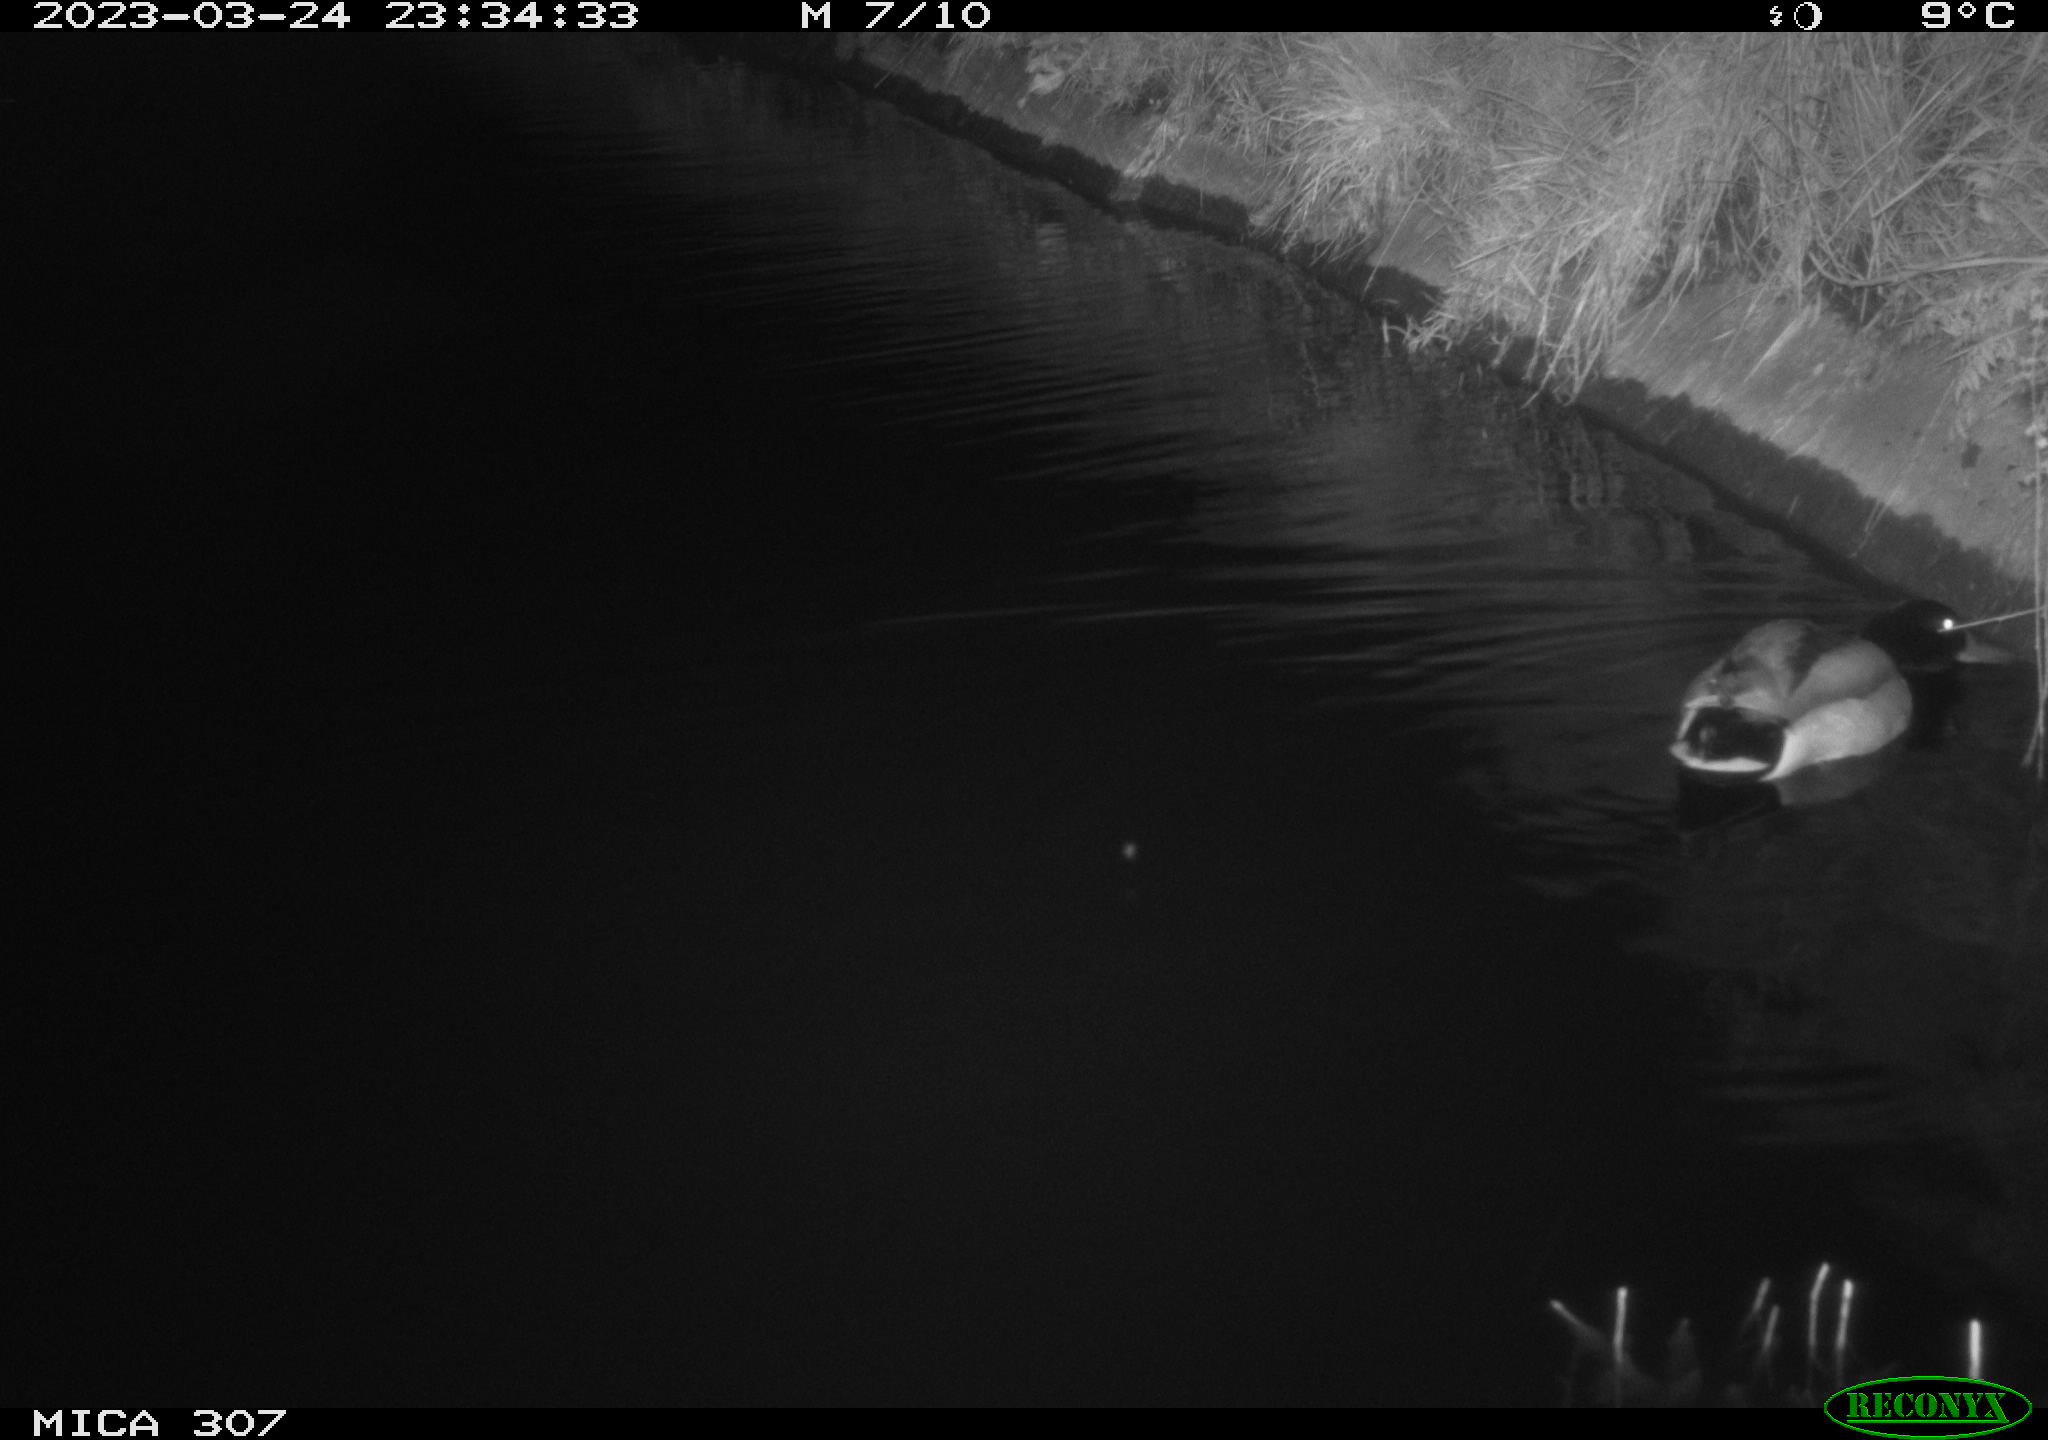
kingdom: Animalia
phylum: Chordata
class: Aves
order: Anseriformes
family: Anatidae
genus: Anas
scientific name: Anas
